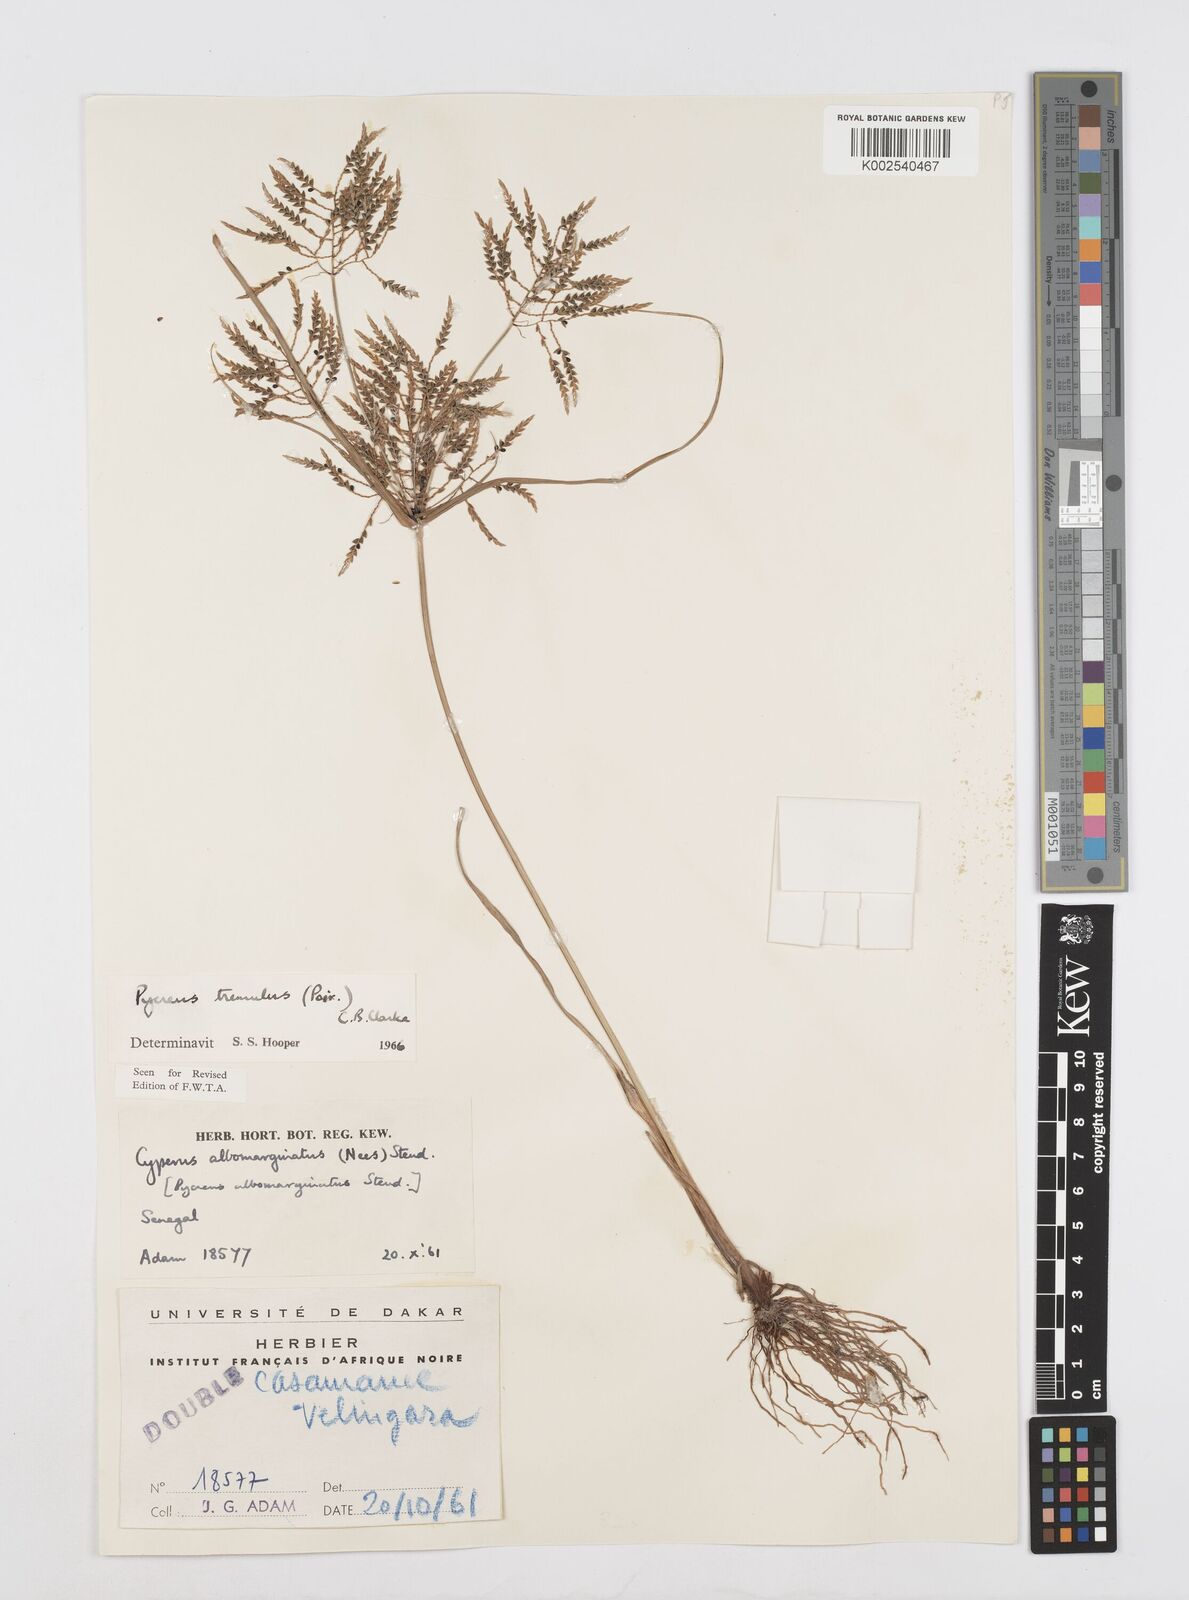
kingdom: Plantae
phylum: Tracheophyta
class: Liliopsida
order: Poales
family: Cyperaceae
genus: Cyperus
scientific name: Cyperus macrostachyos
